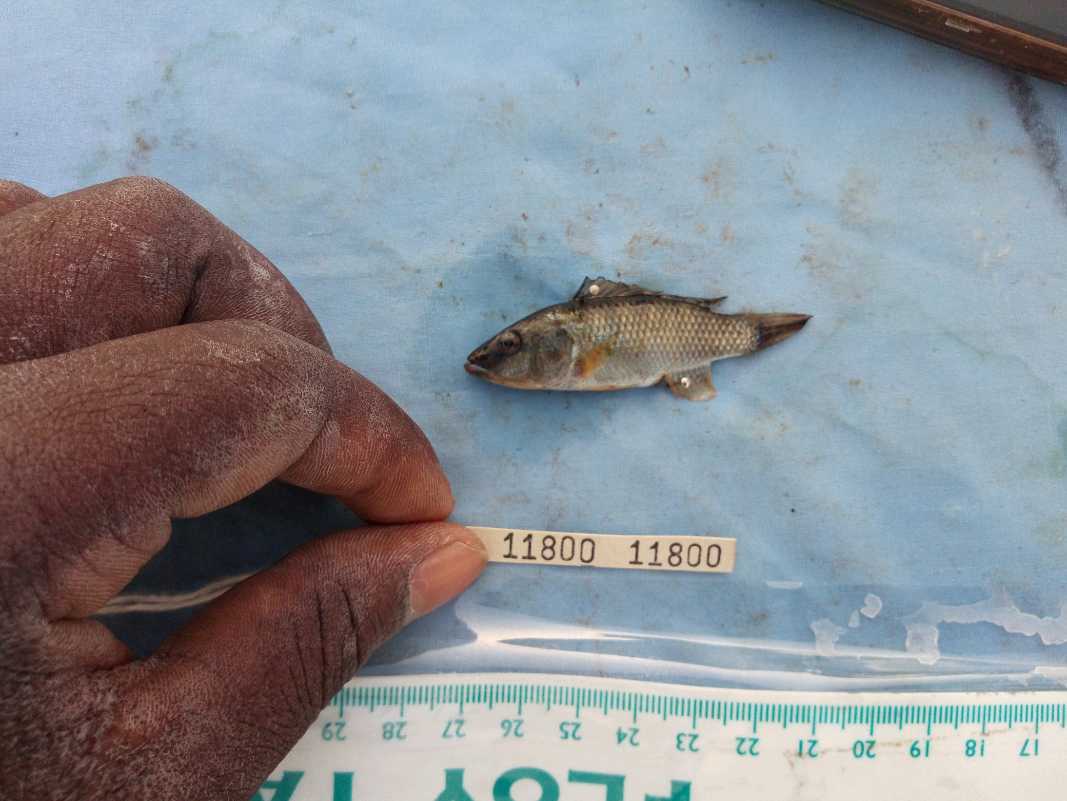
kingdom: Animalia
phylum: Chordata
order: Perciformes
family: Cichlidae
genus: Alcolapia
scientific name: Alcolapia grahami
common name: Lake magadi tilapia
